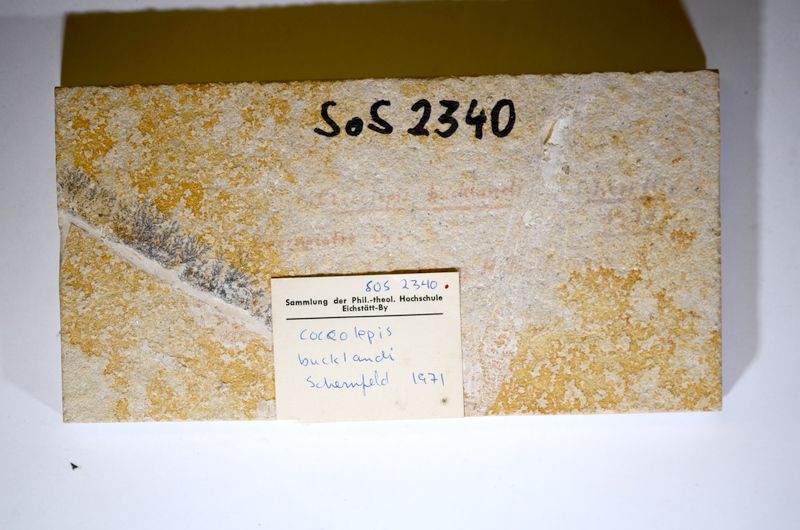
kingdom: Animalia
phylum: Chordata
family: Coccolepididae
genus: Coccolepis
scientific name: Coccolepis bucklandi
